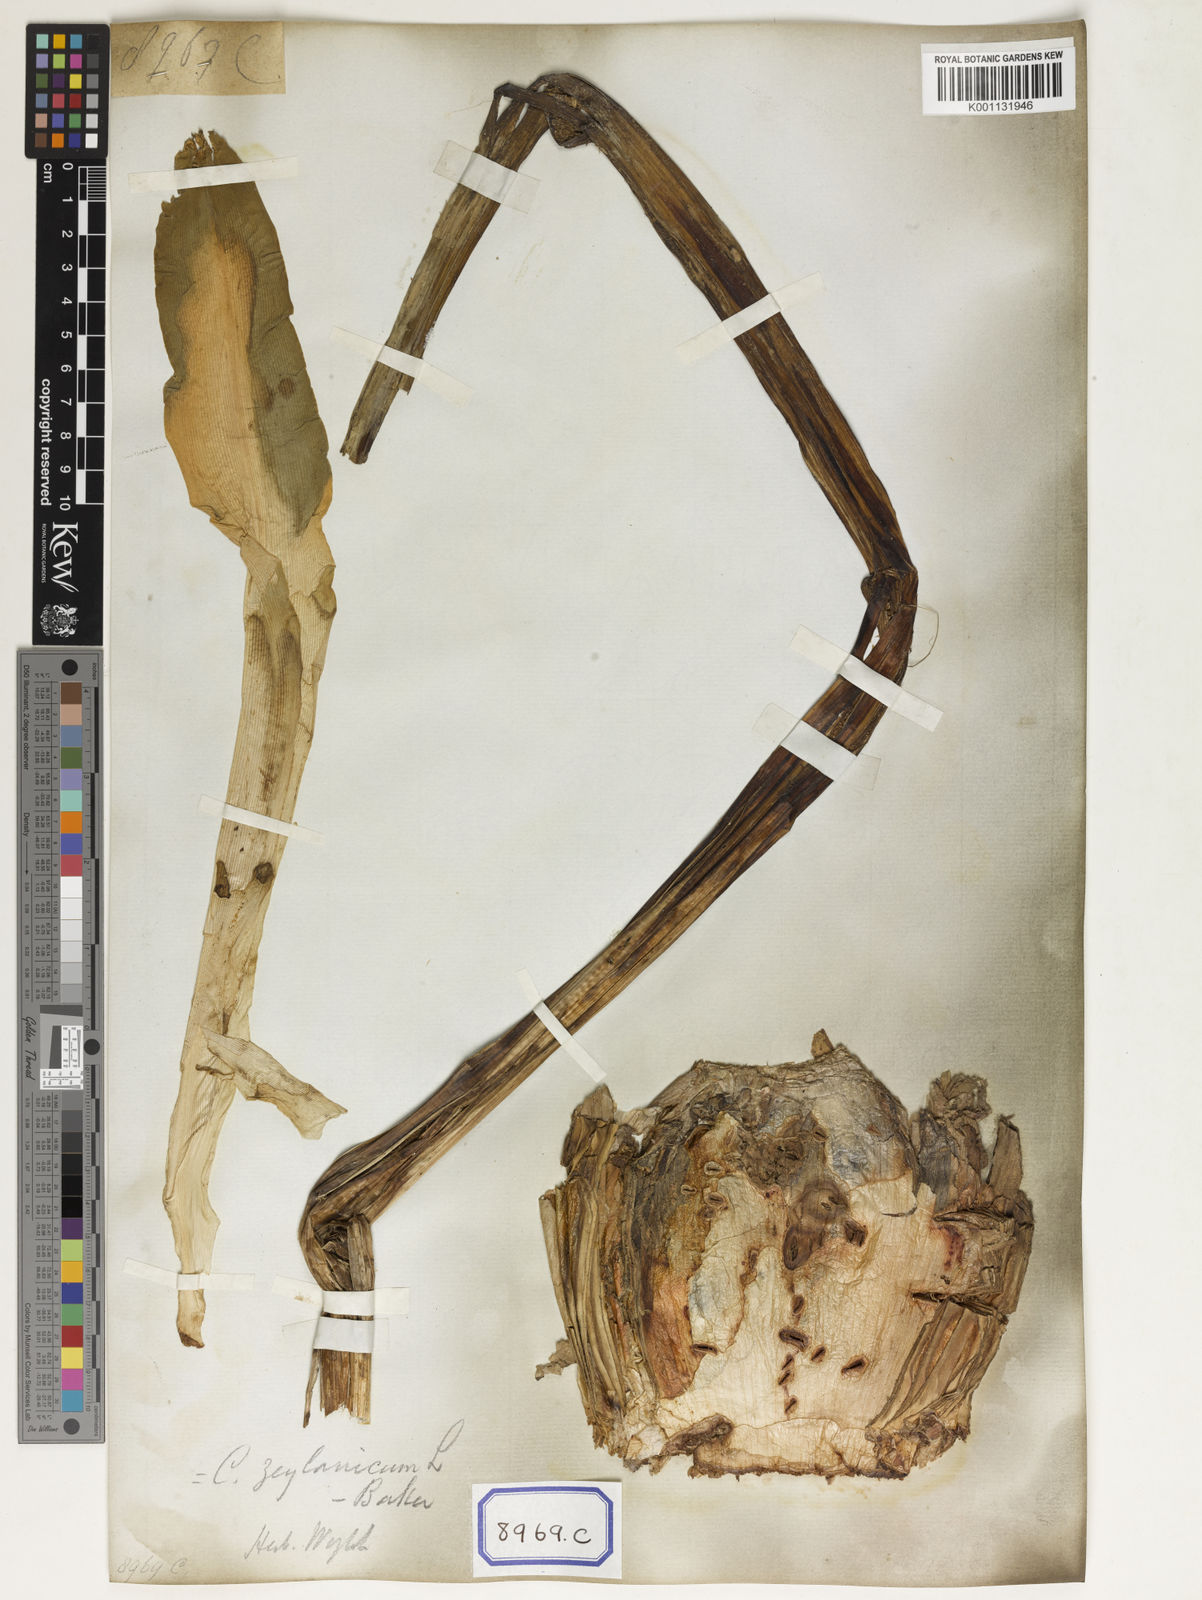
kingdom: Plantae
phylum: Tracheophyta
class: Liliopsida
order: Asparagales
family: Amaryllidaceae
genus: Crinum
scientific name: Crinum asiaticum
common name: Poisonbulb
